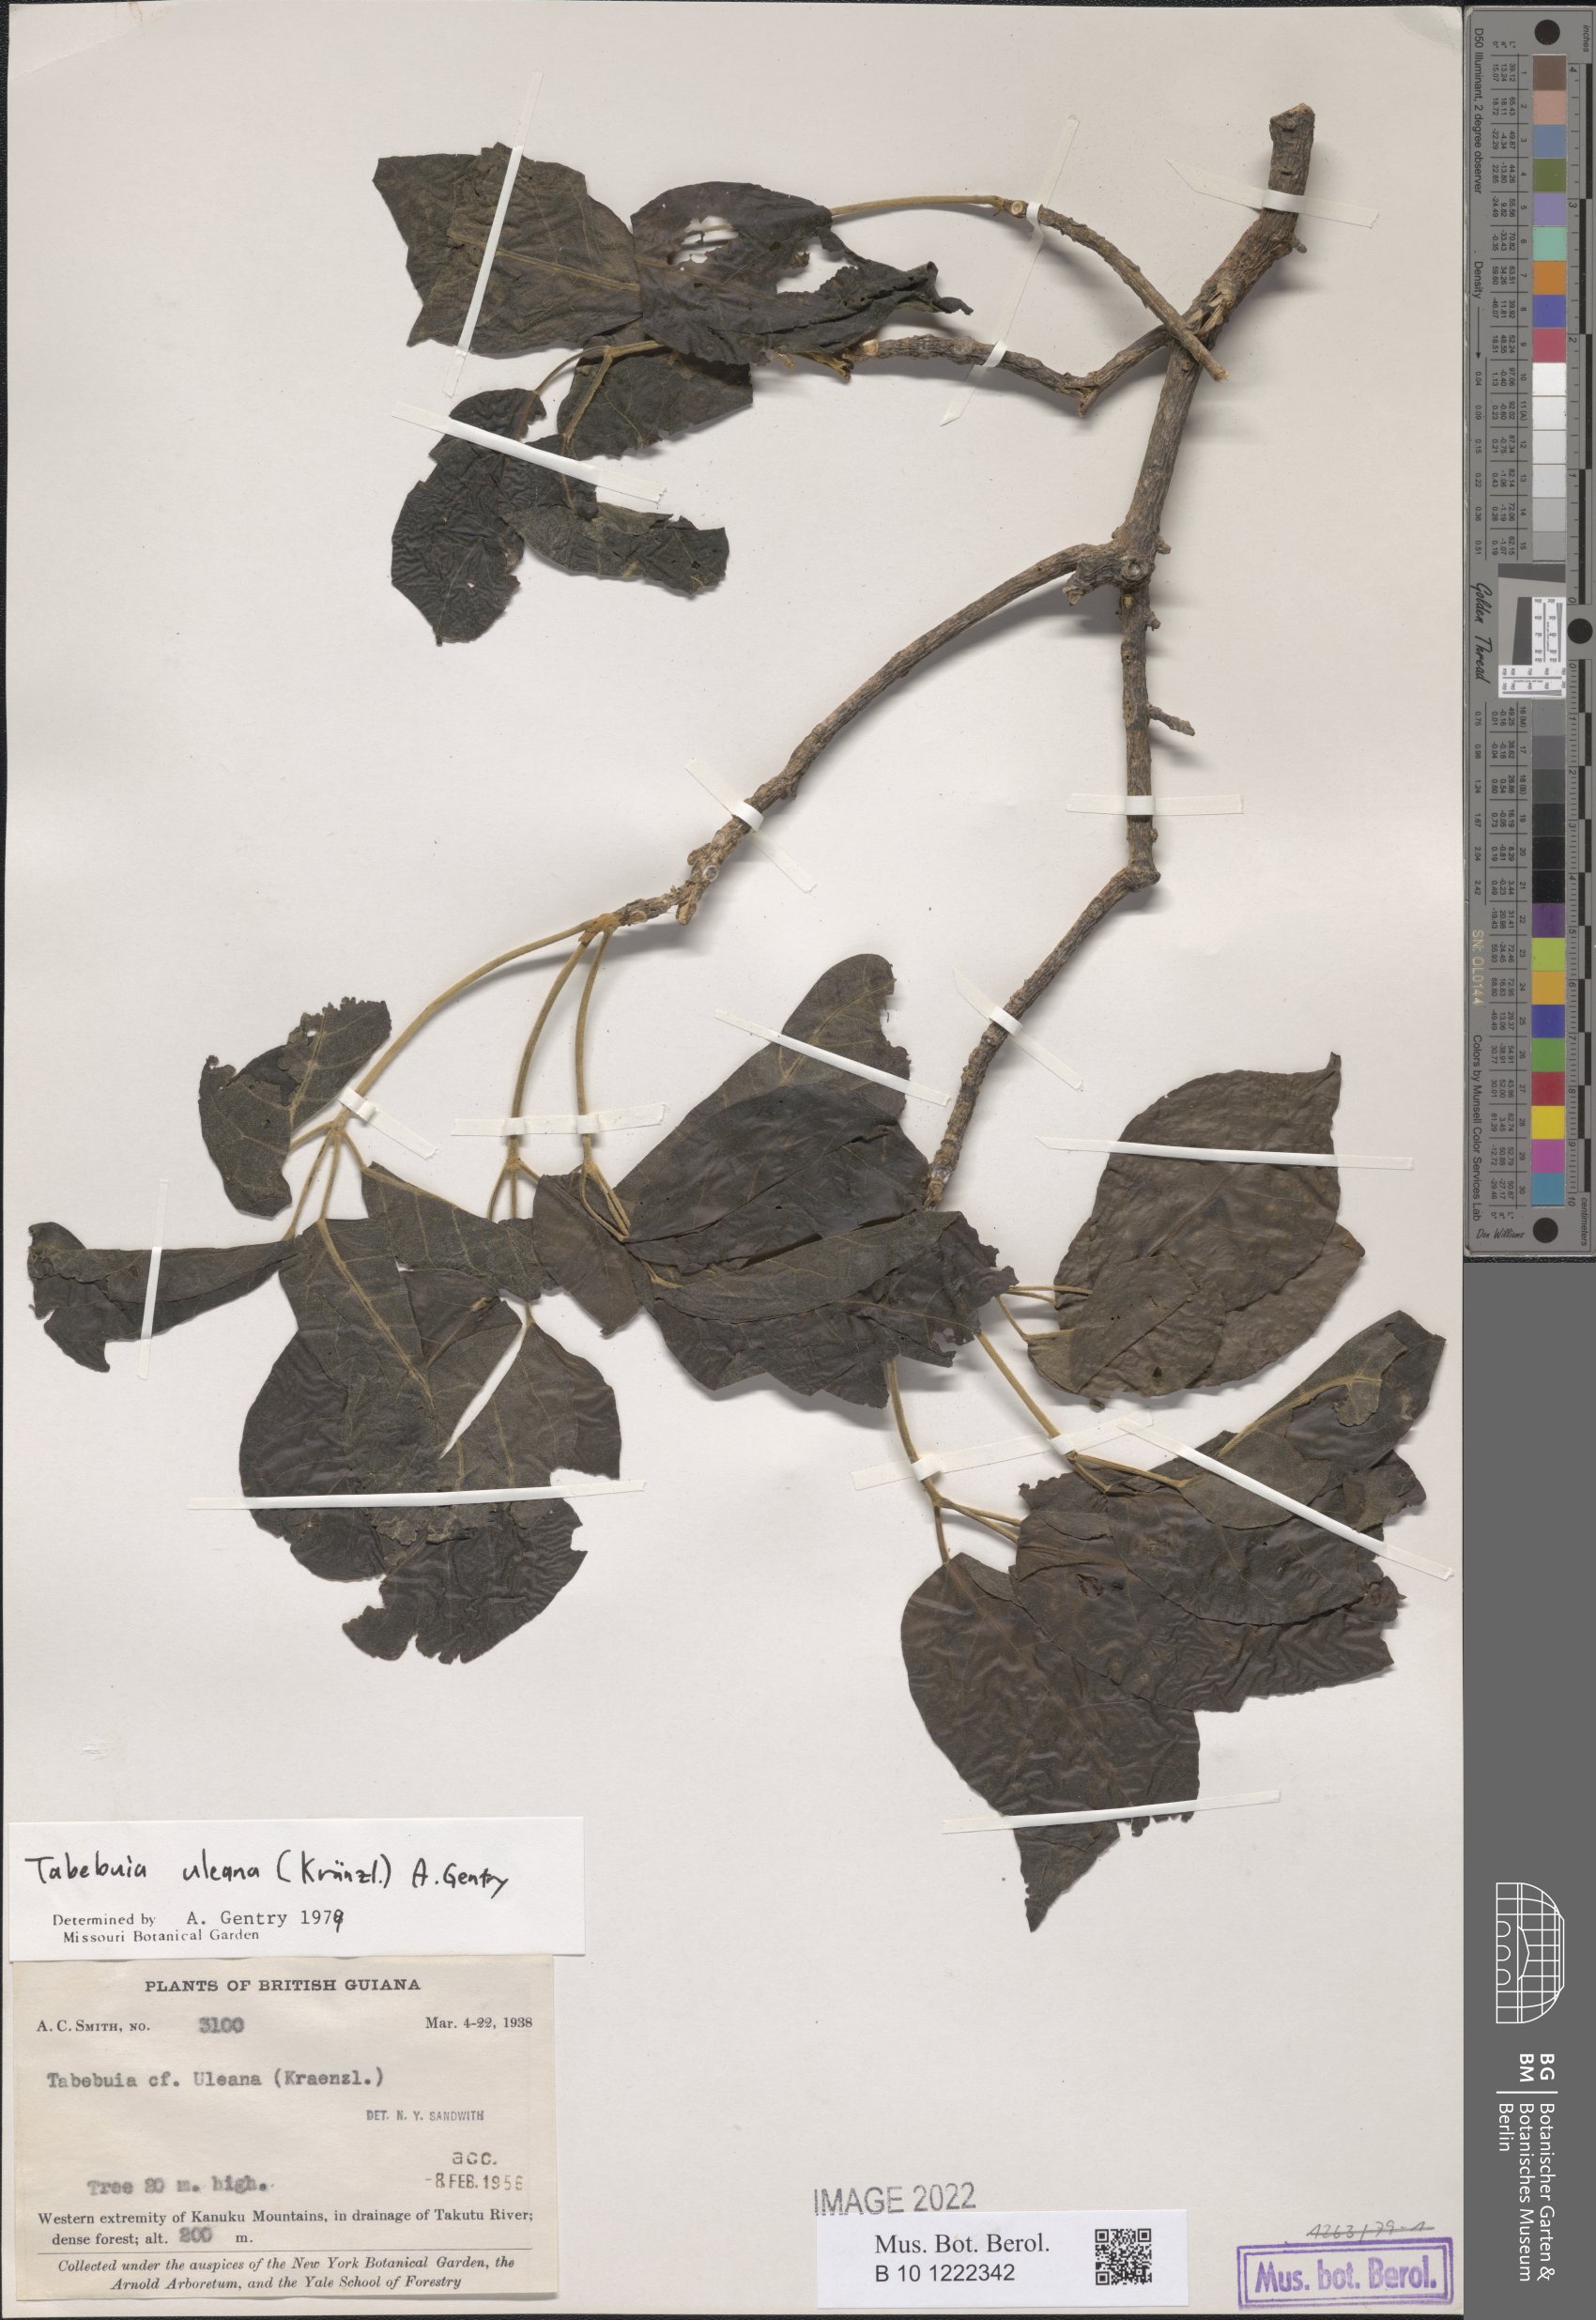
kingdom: Plantae
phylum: Tracheophyta
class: Magnoliopsida
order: Lamiales
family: Bignoniaceae
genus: Handroanthus
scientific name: Handroanthus uleanus
